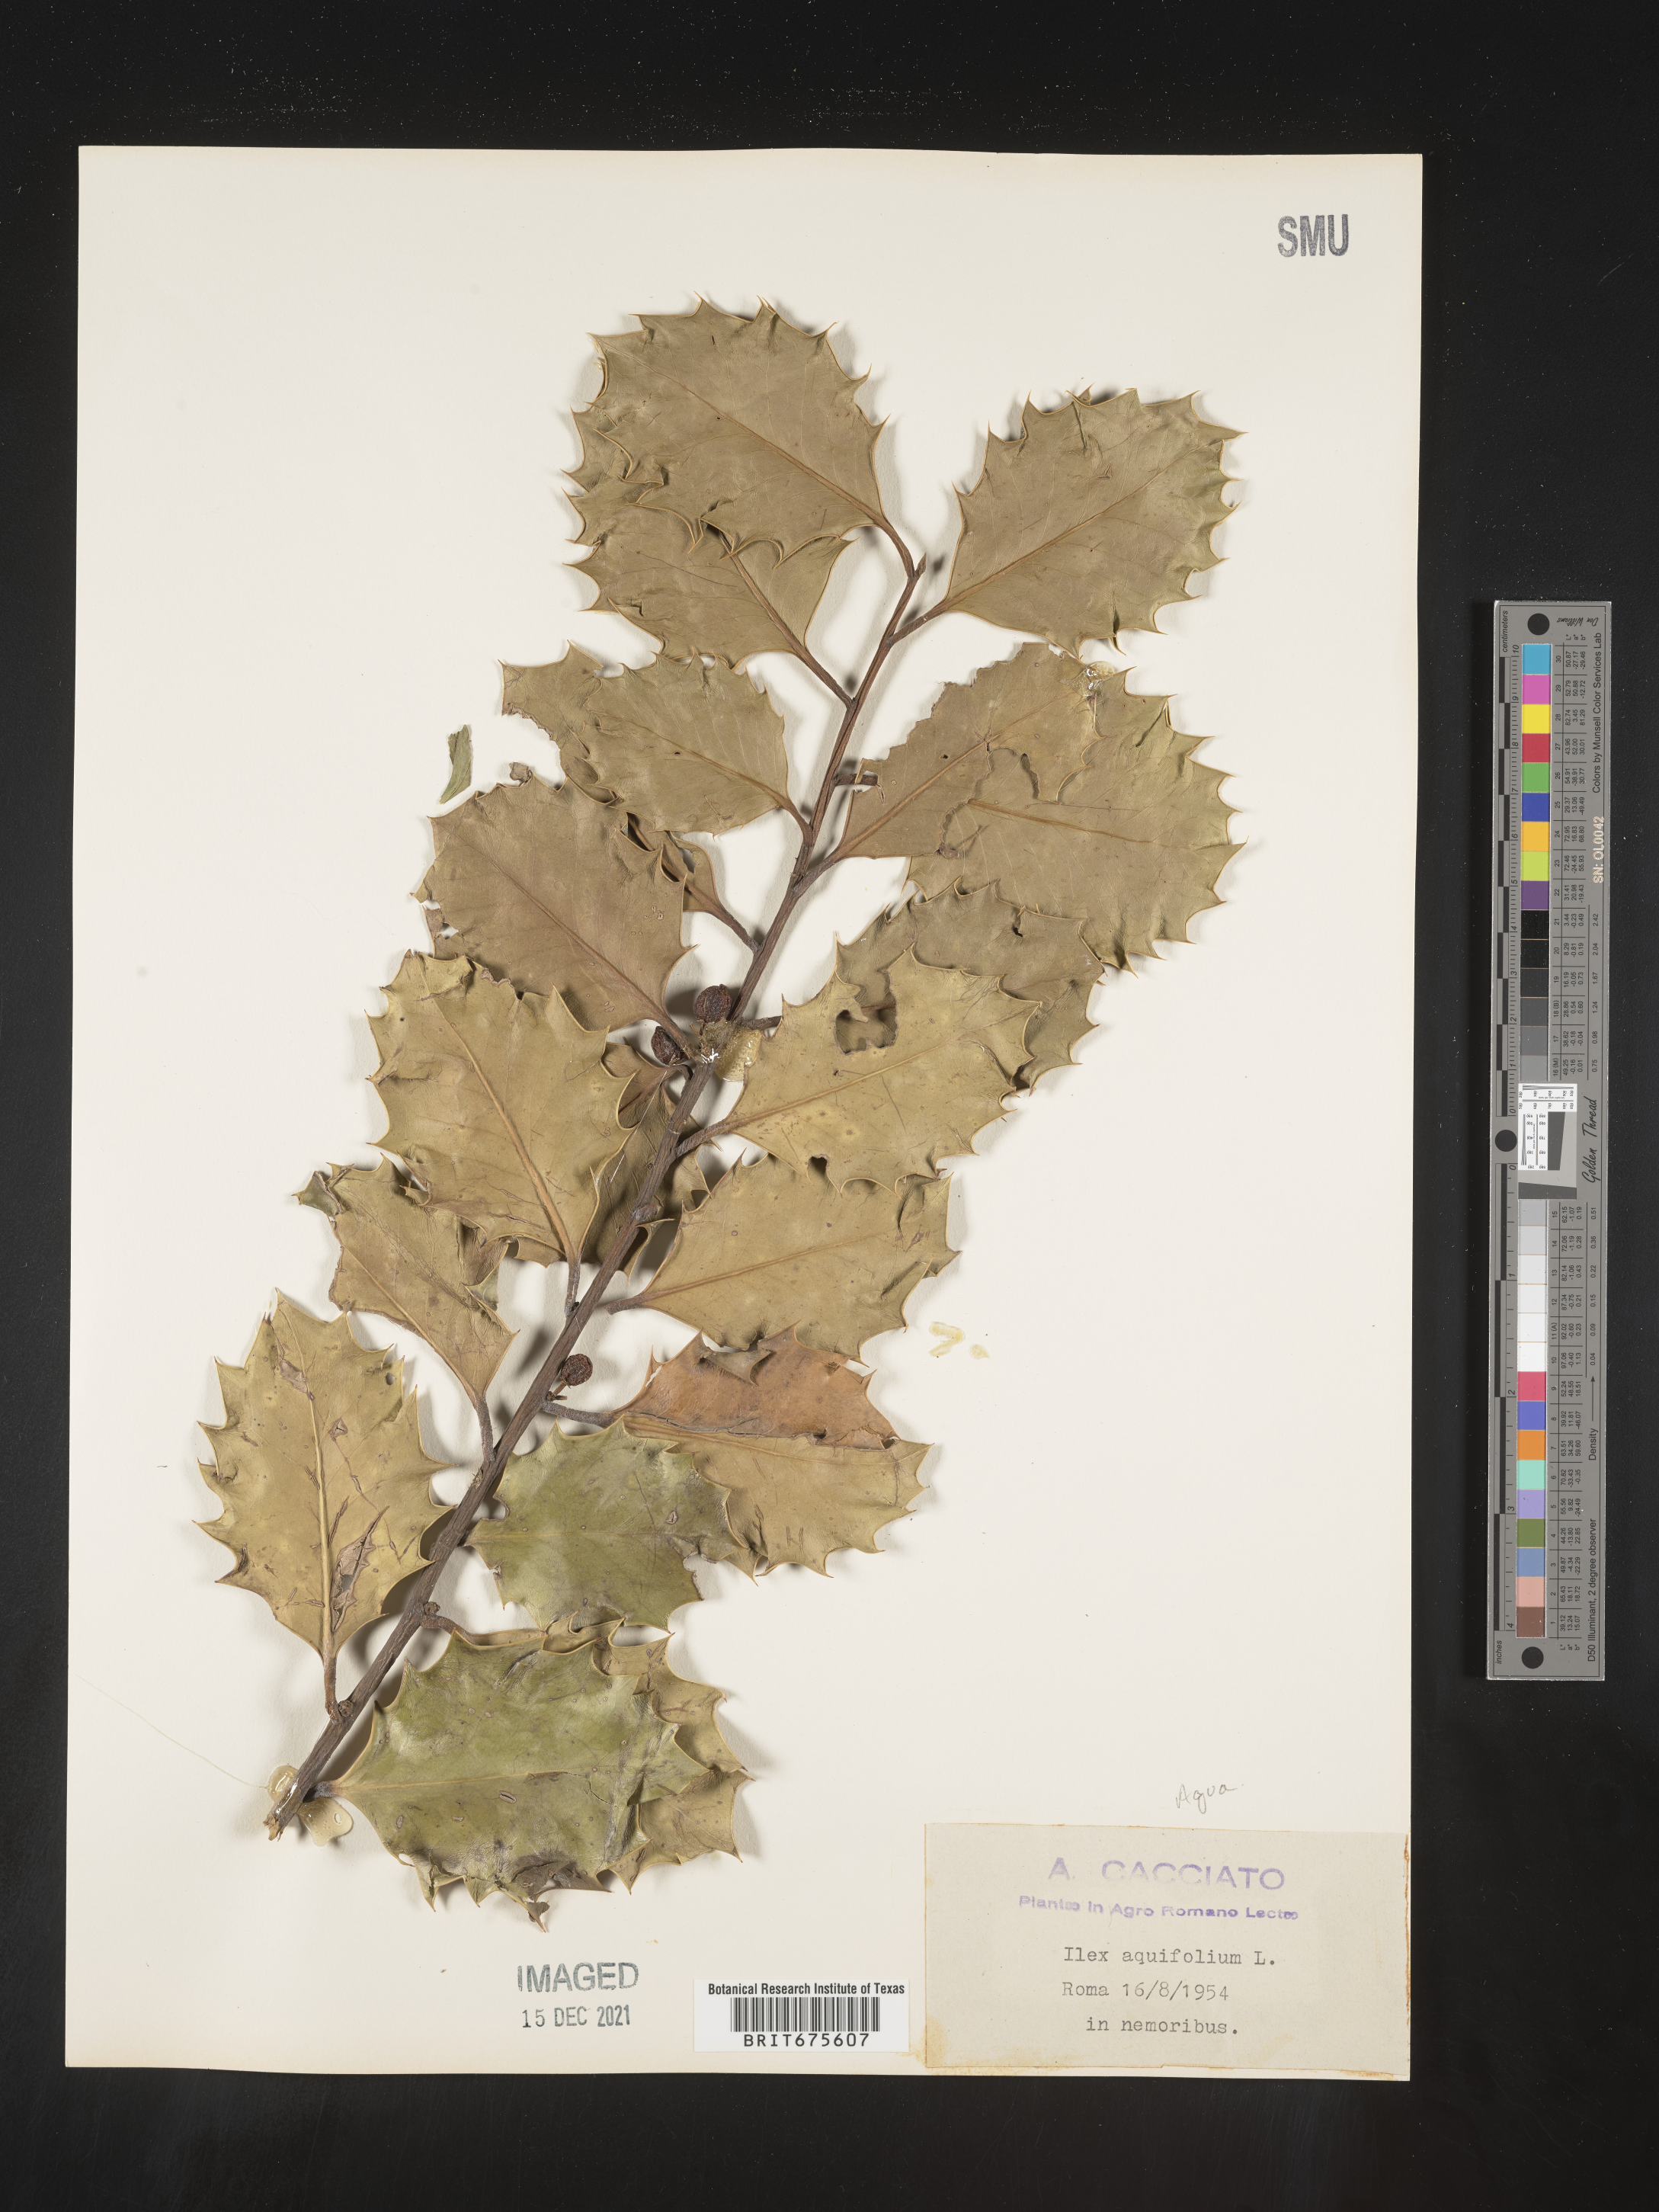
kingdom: Plantae
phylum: Tracheophyta
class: Magnoliopsida
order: Aquifoliales
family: Aquifoliaceae
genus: Ilex
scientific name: Ilex
